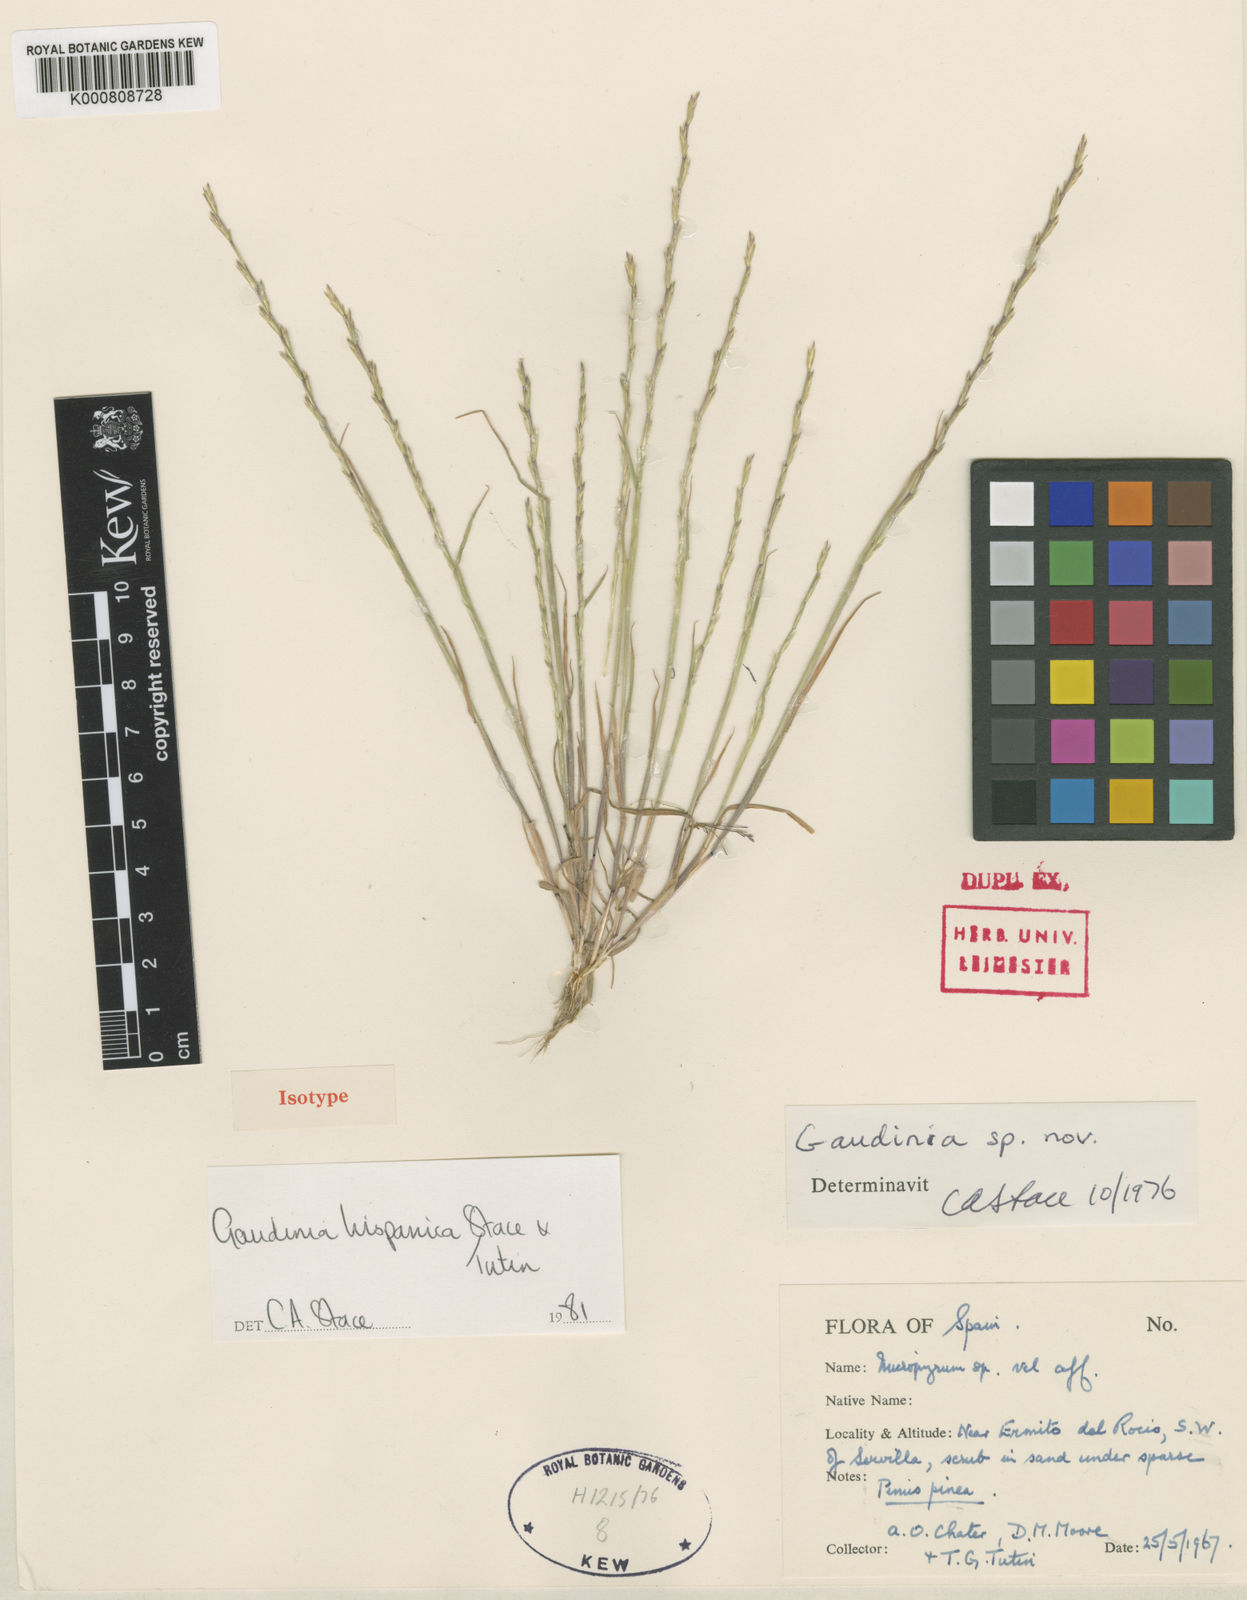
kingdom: Plantae
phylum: Tracheophyta
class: Liliopsida
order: Poales
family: Poaceae
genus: Gaudinia
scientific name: Gaudinia hispanica
